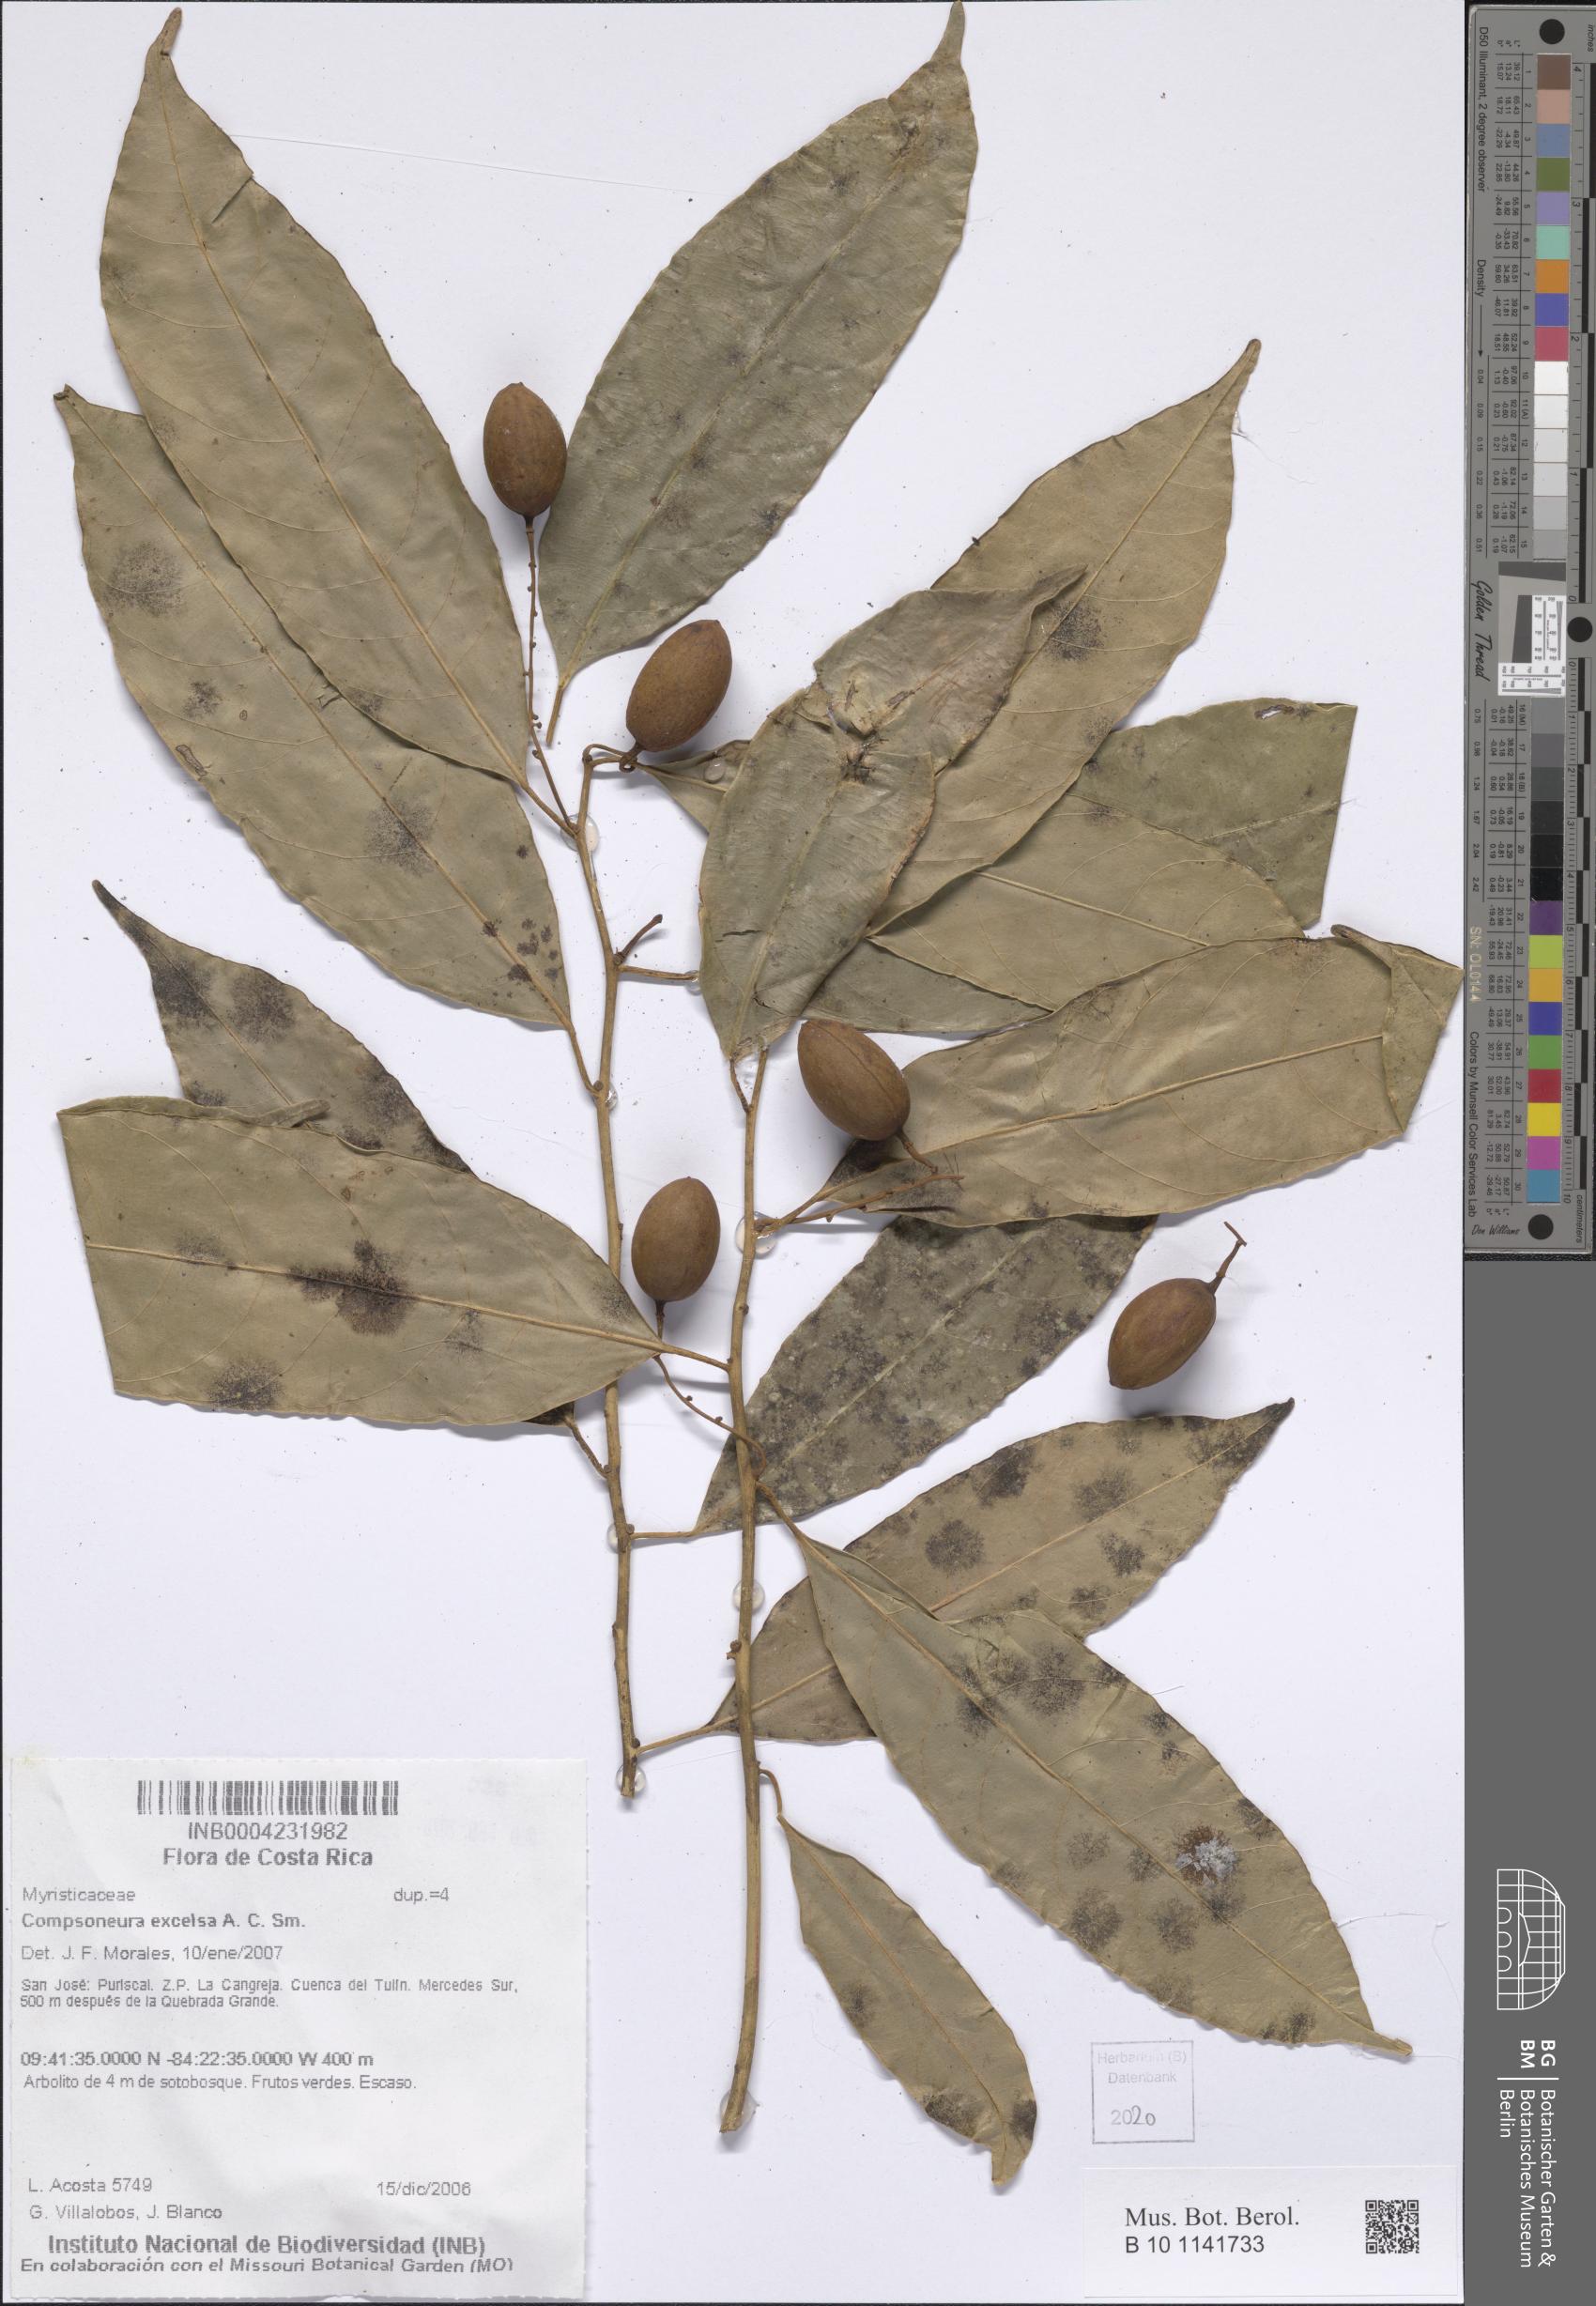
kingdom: Plantae
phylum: Tracheophyta
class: Magnoliopsida
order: Magnoliales
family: Myristicaceae
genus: Compsoneura
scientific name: Compsoneura excelsa
